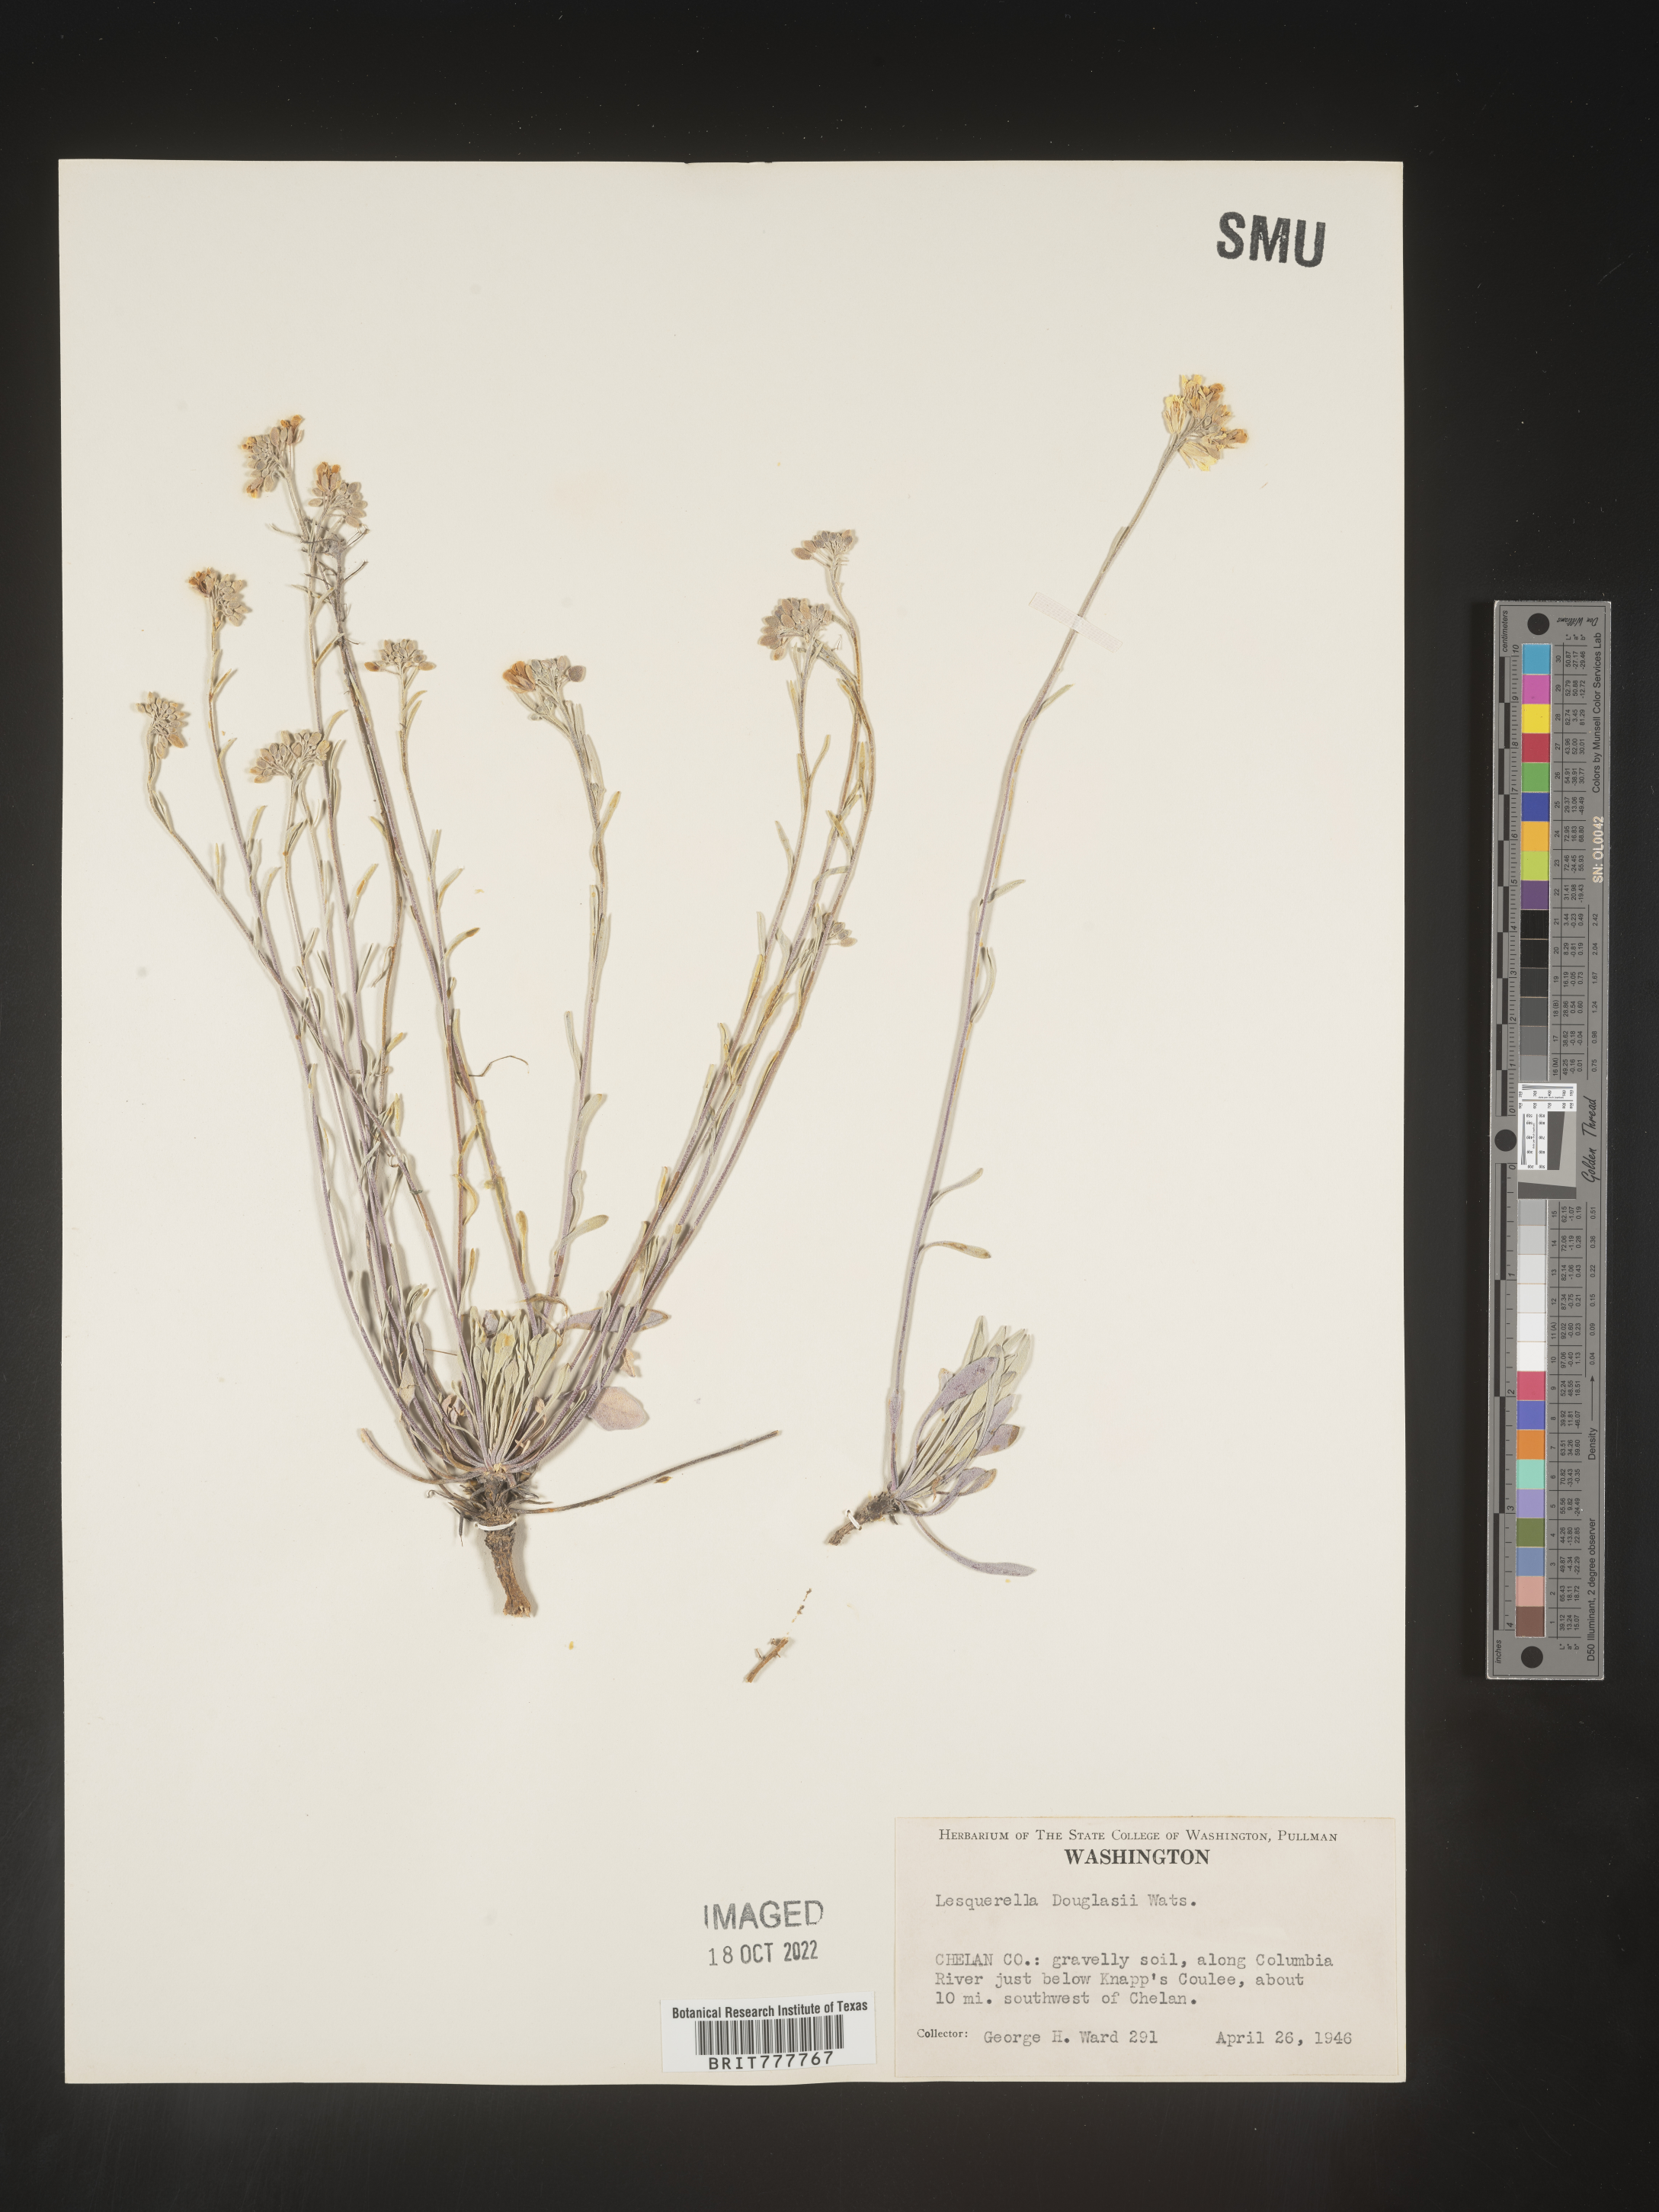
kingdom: Chromista
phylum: Cercozoa
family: Psammonobiotidae
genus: Lesquerella
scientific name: Lesquerella
